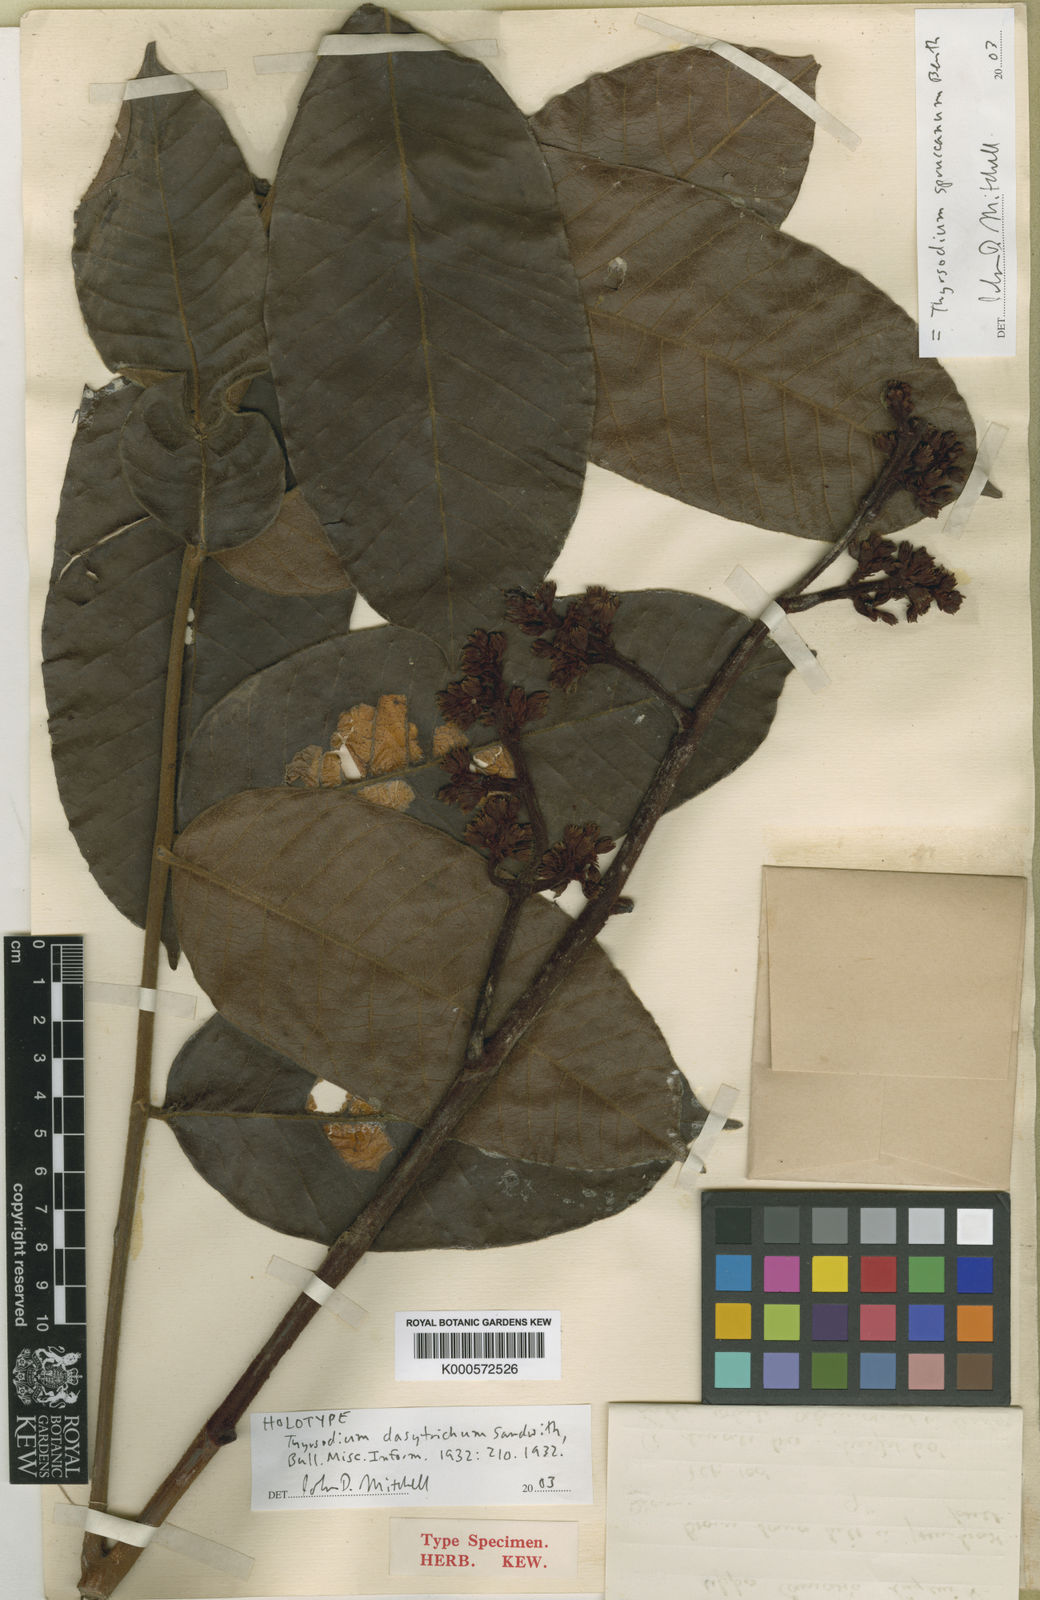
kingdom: Plantae
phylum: Tracheophyta
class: Magnoliopsida
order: Sapindales
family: Anacardiaceae
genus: Thyrsodium
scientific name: Thyrsodium spruceanum
